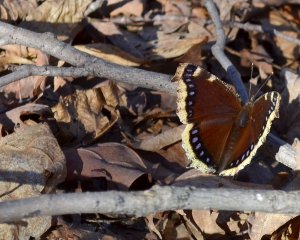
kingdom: Animalia
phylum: Arthropoda
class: Insecta
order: Lepidoptera
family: Nymphalidae
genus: Nymphalis
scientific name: Nymphalis antiopa
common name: Mourning Cloak
